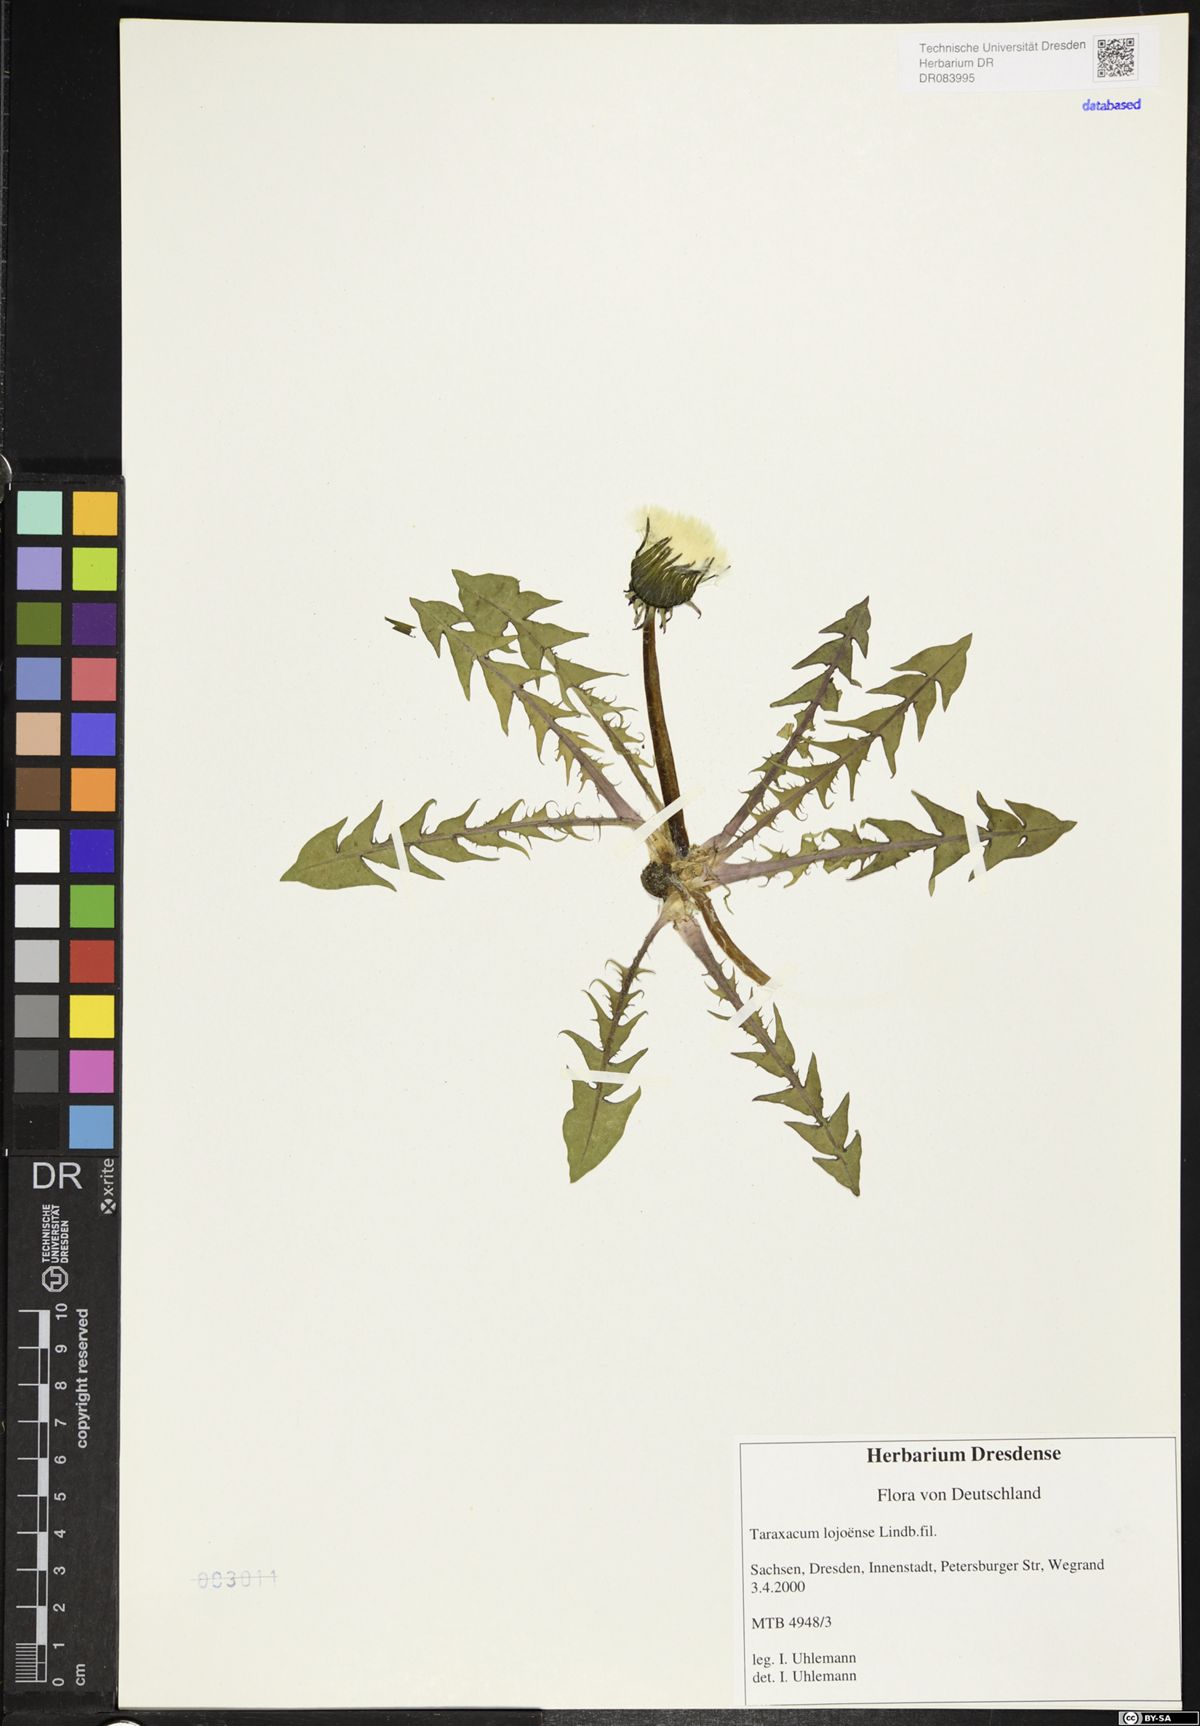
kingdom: Plantae
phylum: Tracheophyta
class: Magnoliopsida
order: Asterales
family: Asteraceae
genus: Taraxacum
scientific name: Taraxacum debrayi
